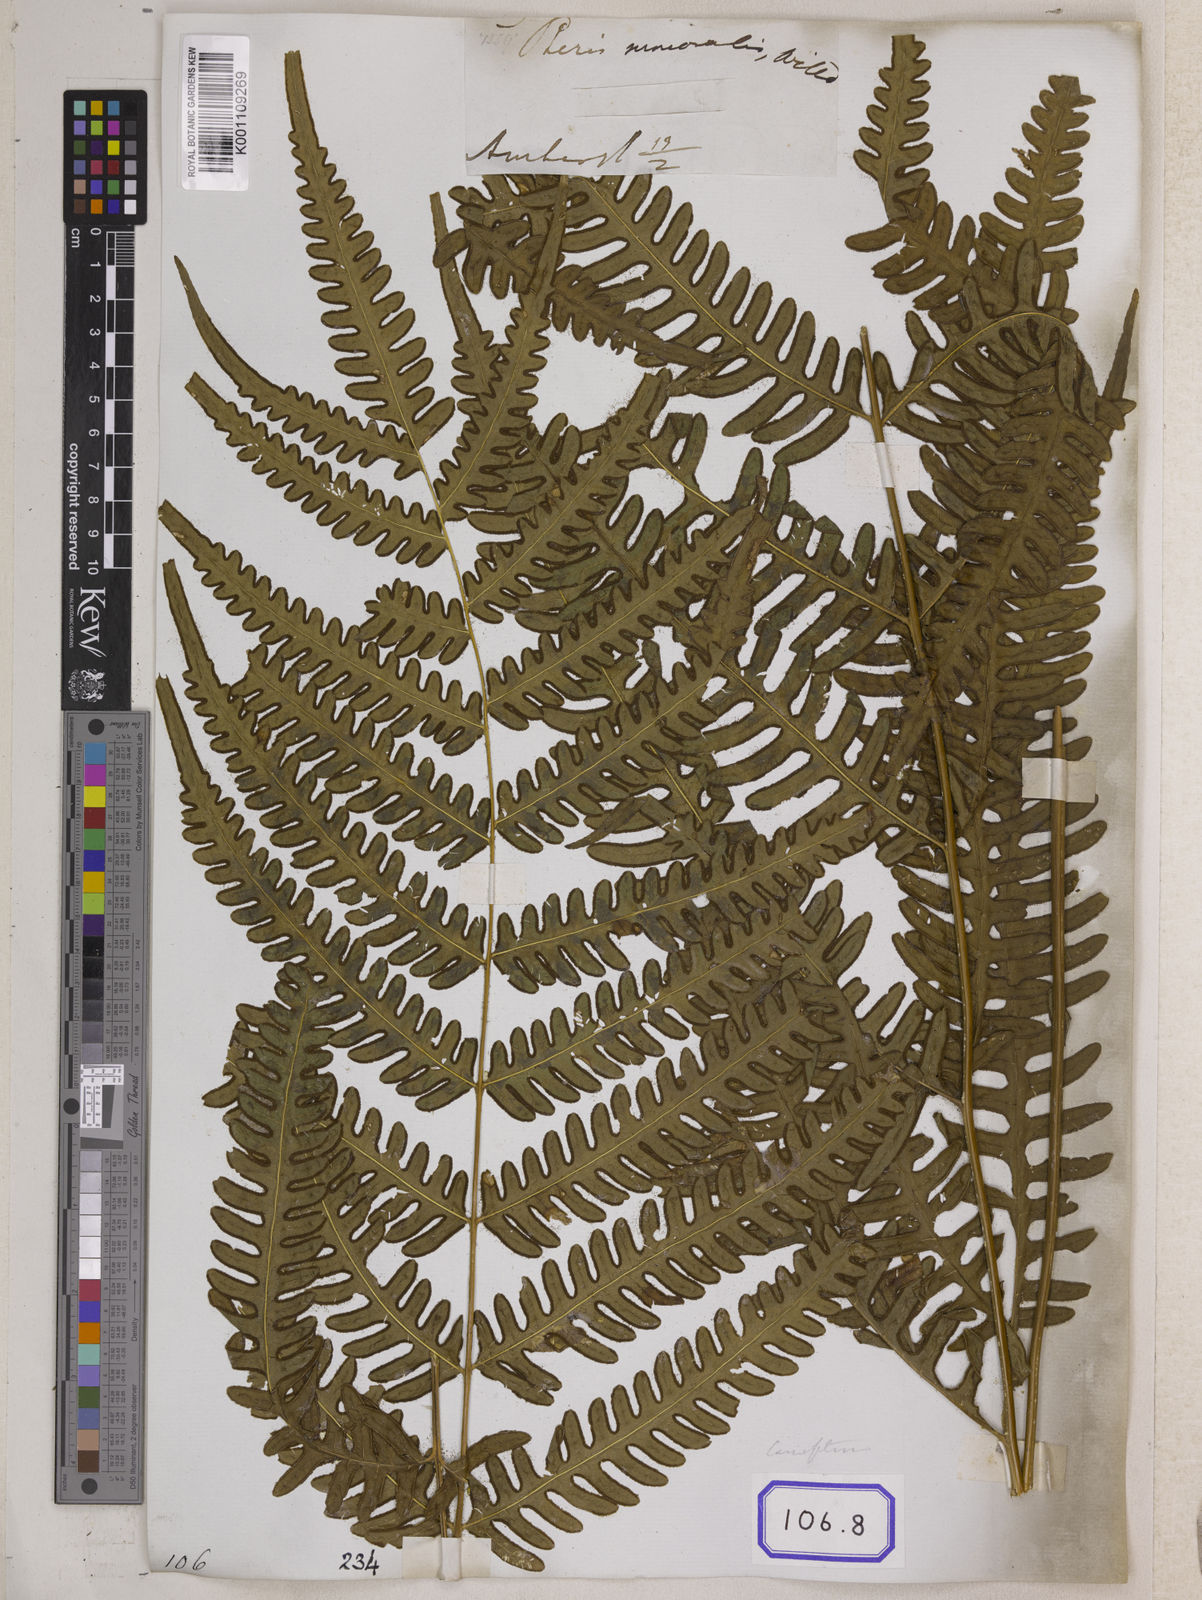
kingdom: Plantae
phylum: Tracheophyta
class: Polypodiopsida
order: Polypodiales
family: Pteridaceae
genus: Pteris
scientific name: Pteris linearis
